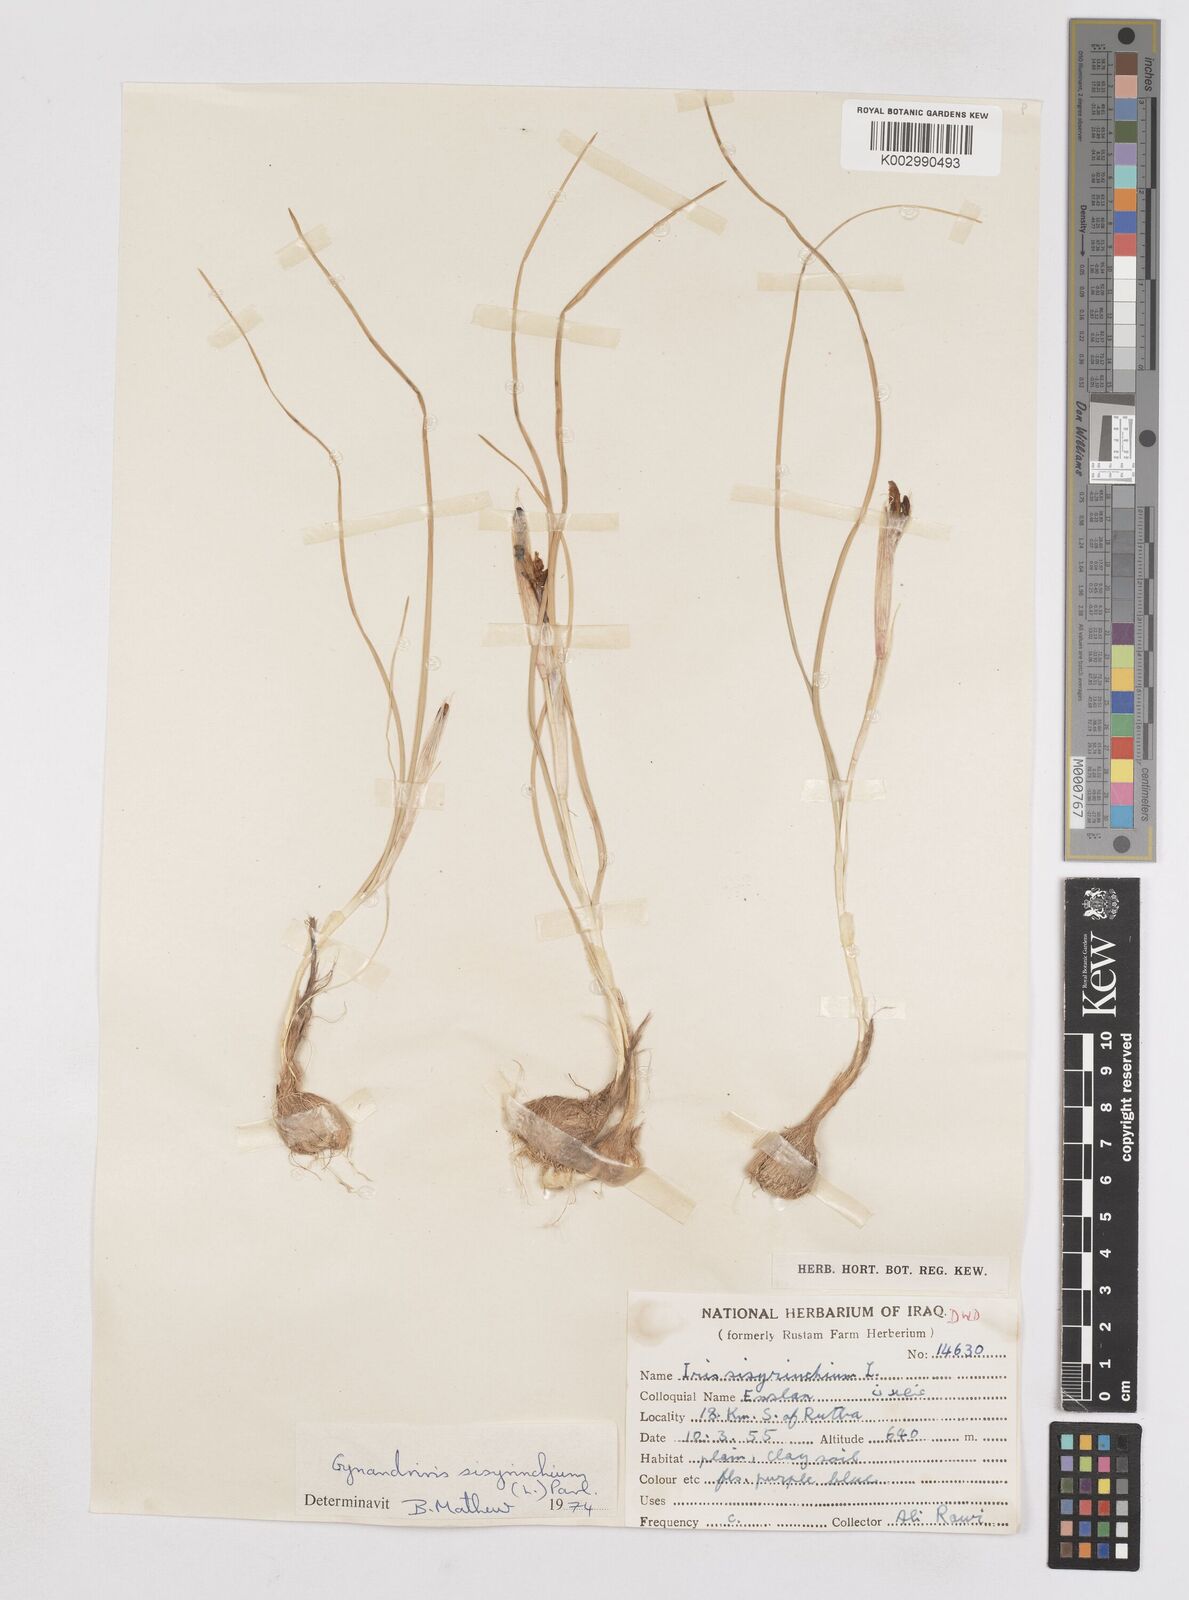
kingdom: Plantae
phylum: Tracheophyta
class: Liliopsida
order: Asparagales
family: Iridaceae
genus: Moraea
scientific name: Moraea sisyrinchium
